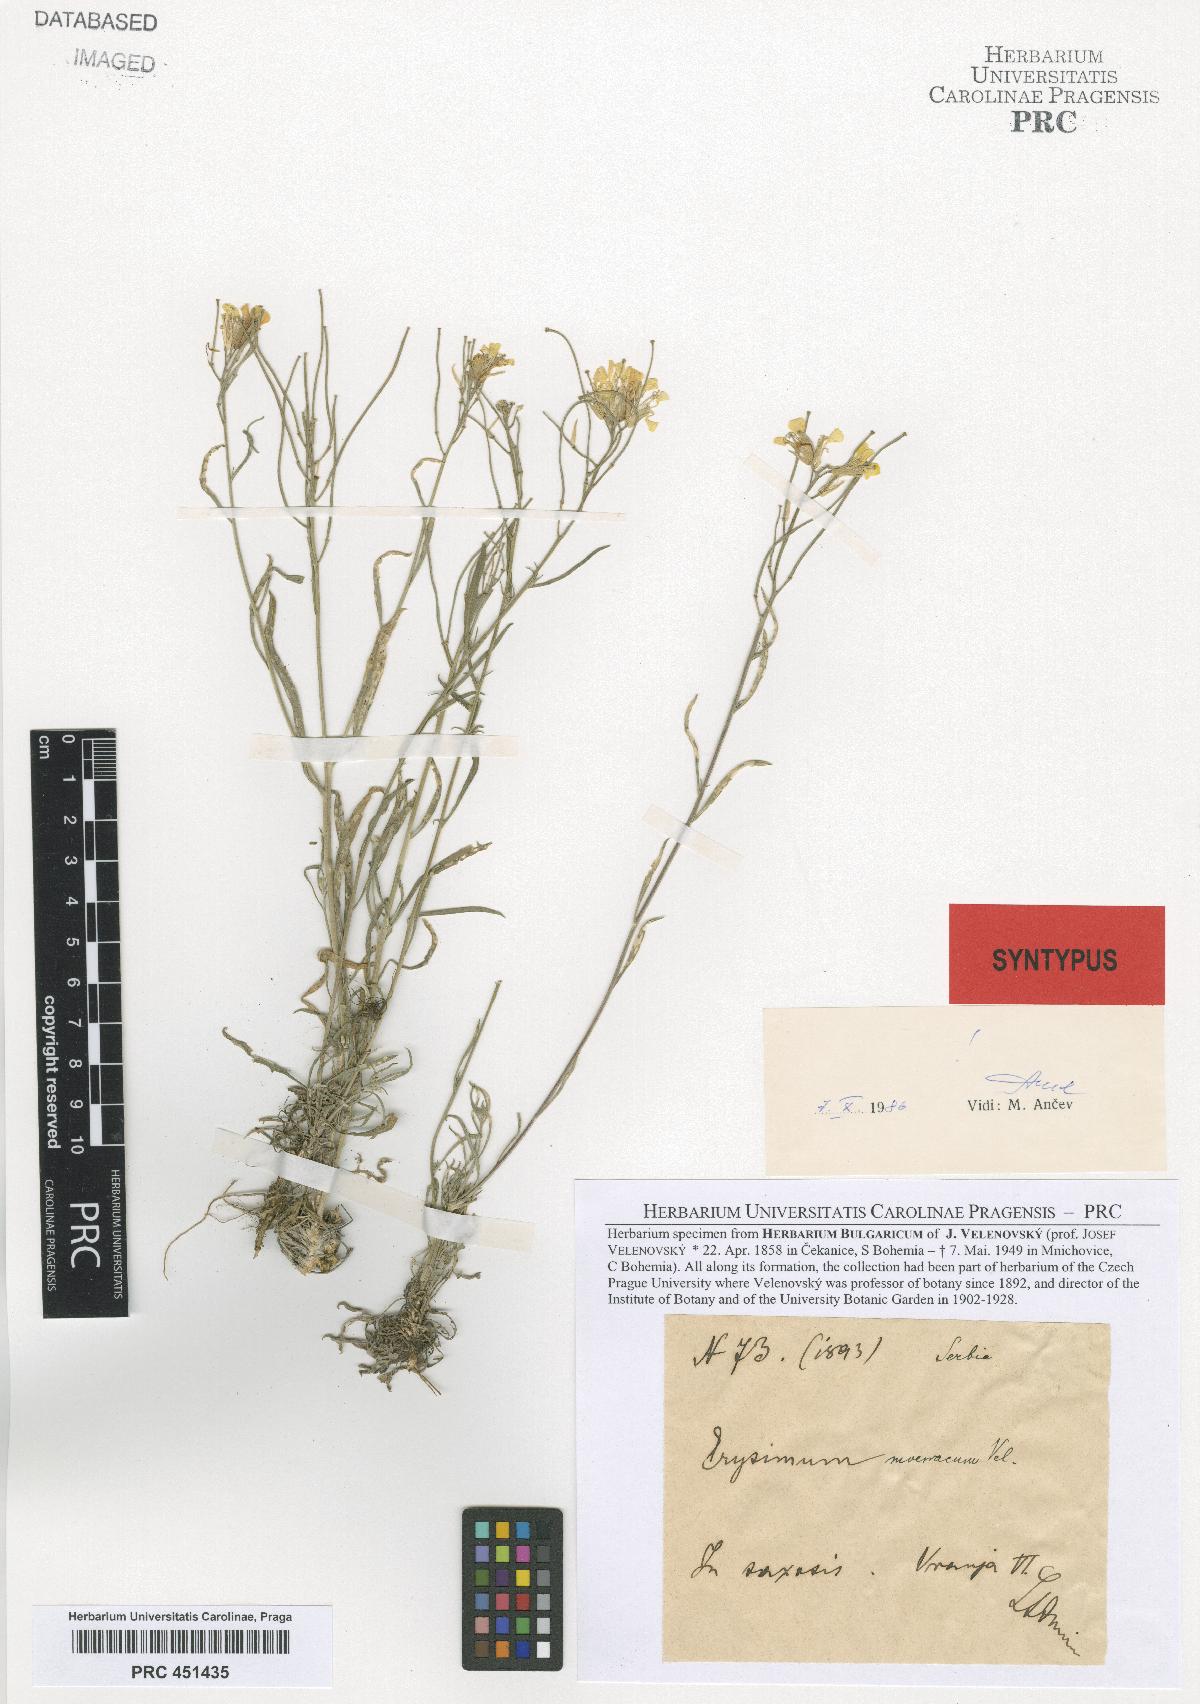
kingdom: Plantae
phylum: Tracheophyta
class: Magnoliopsida
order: Brassicales
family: Brassicaceae
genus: Erysimum
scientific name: Erysimum moesiacum
